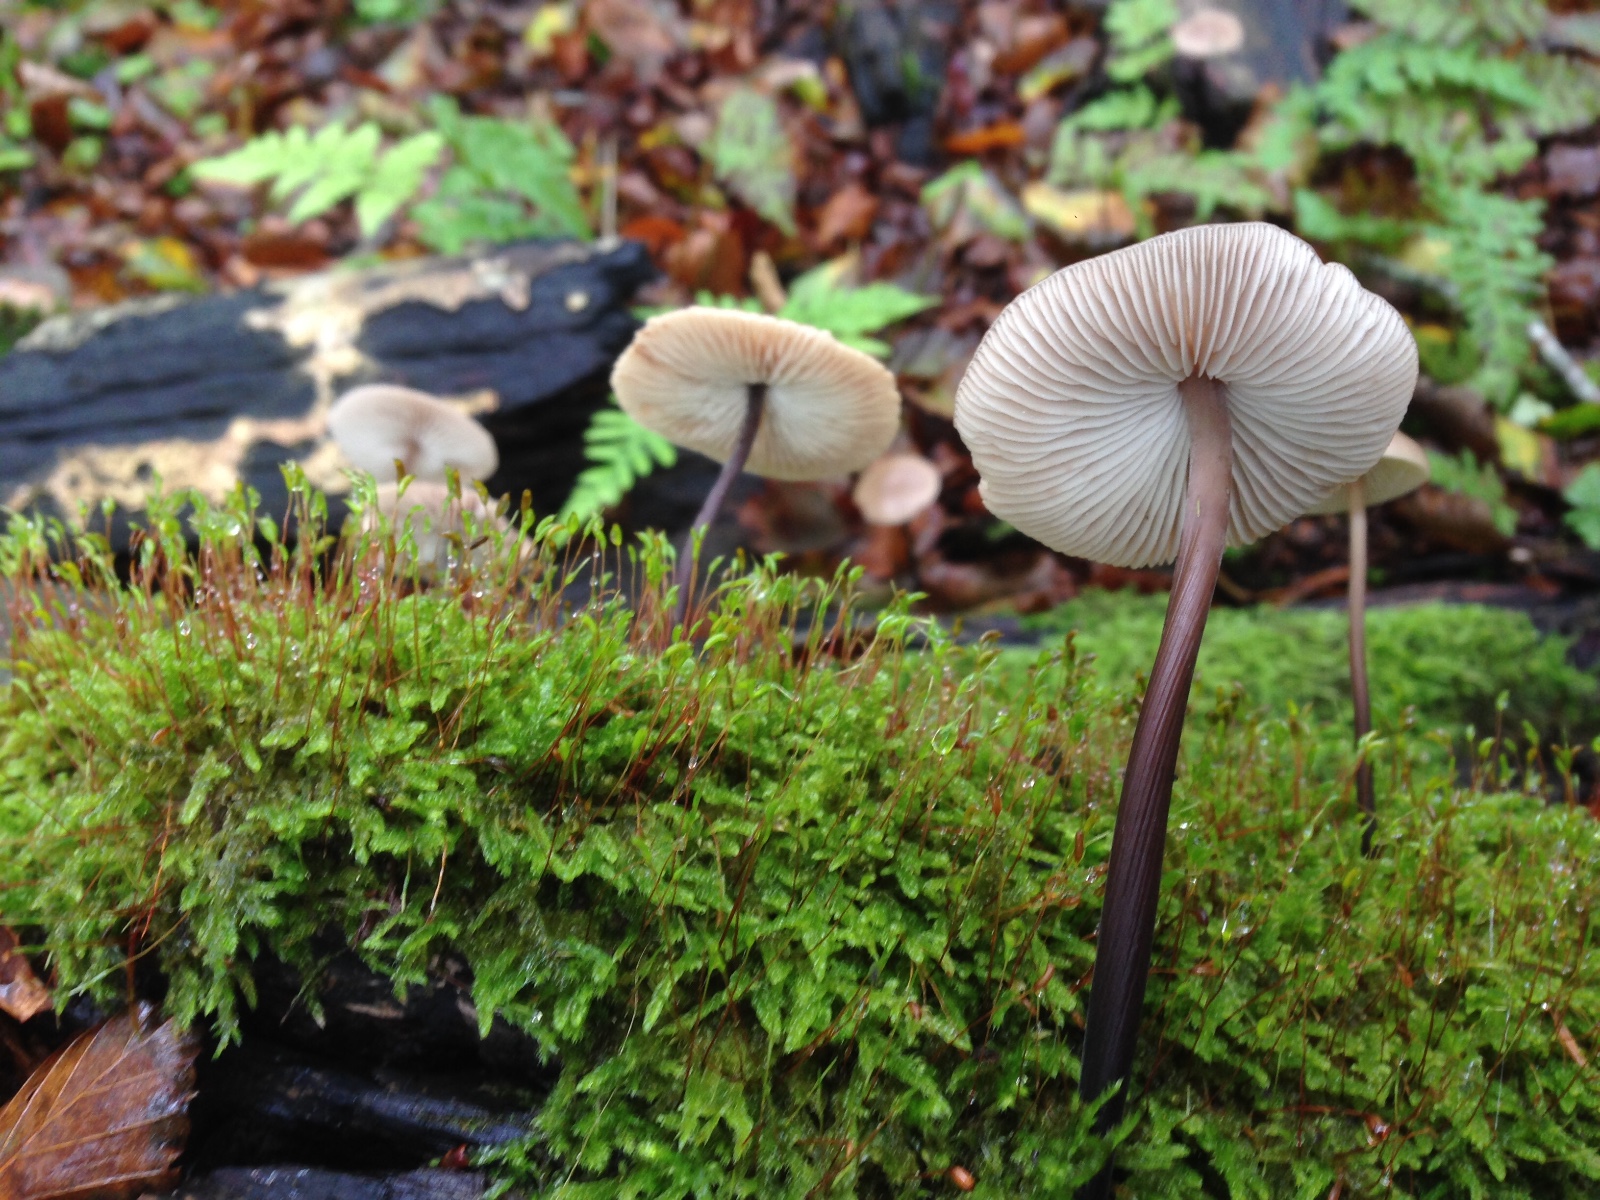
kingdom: Fungi
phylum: Basidiomycota
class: Agaricomycetes
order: Agaricales
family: Omphalotaceae
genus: Mycetinis
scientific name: Mycetinis alliaceus
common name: stor løghat
